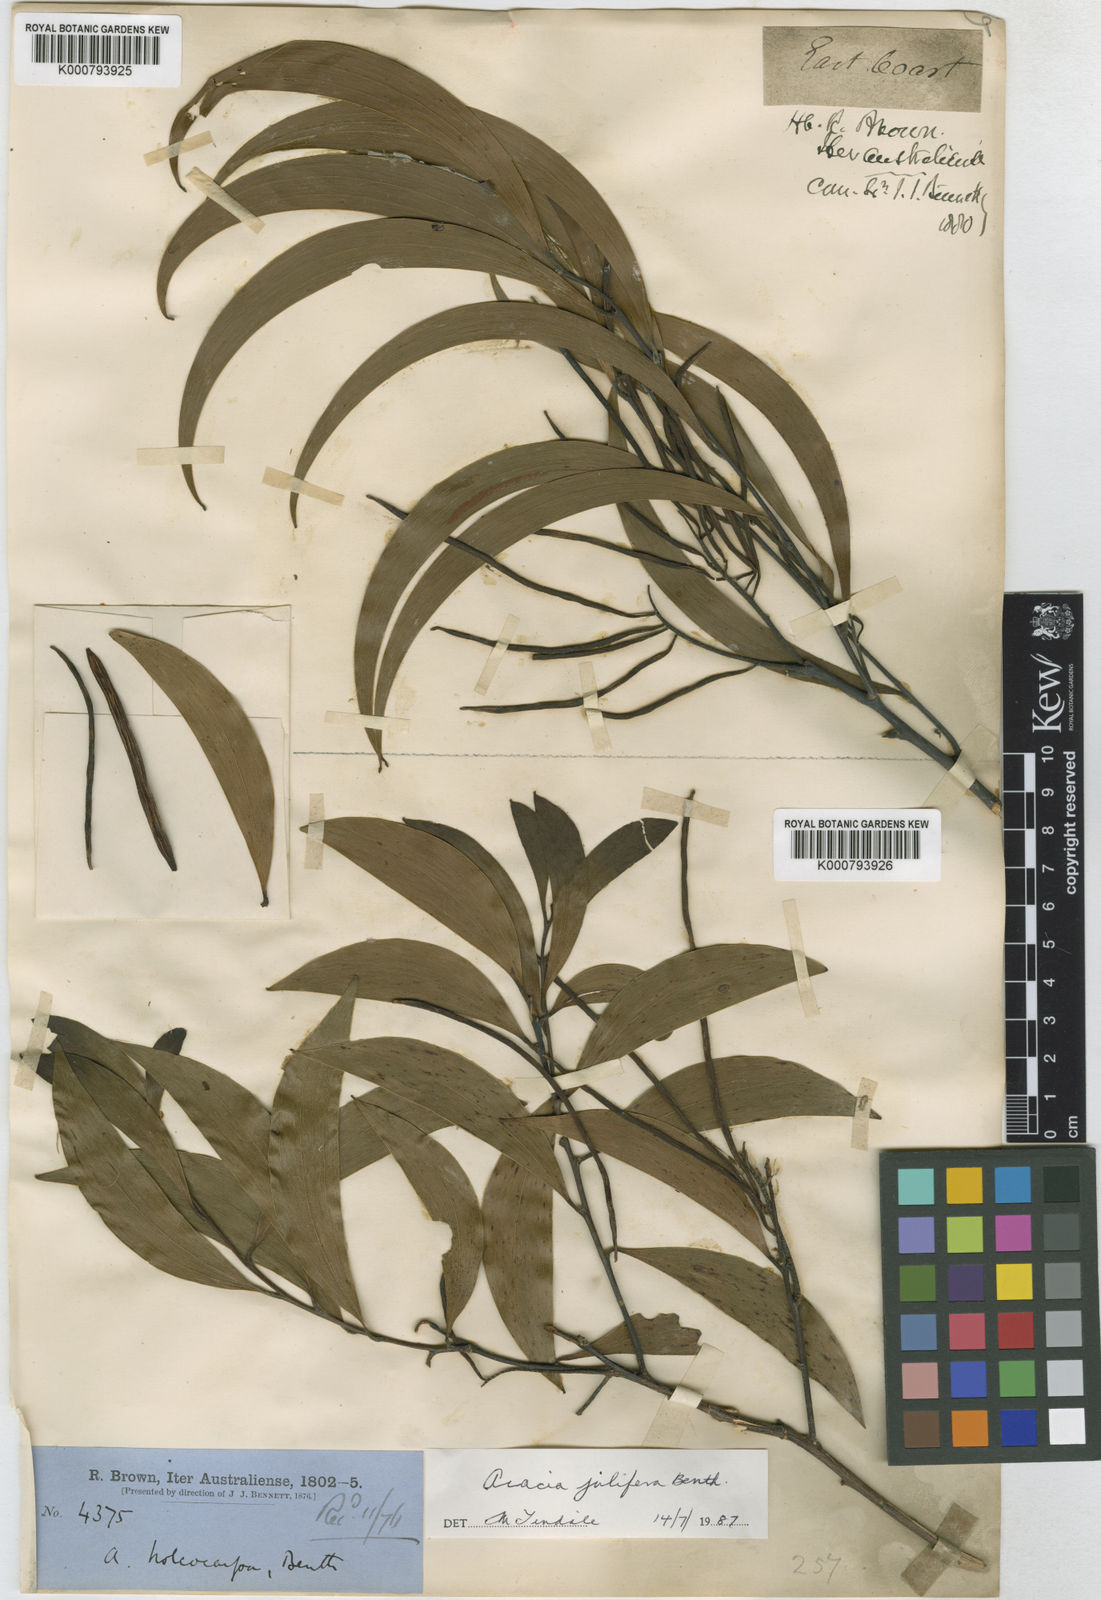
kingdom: Plantae
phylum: Tracheophyta
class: Magnoliopsida
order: Fabales
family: Fabaceae
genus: Acacia
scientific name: Acacia
